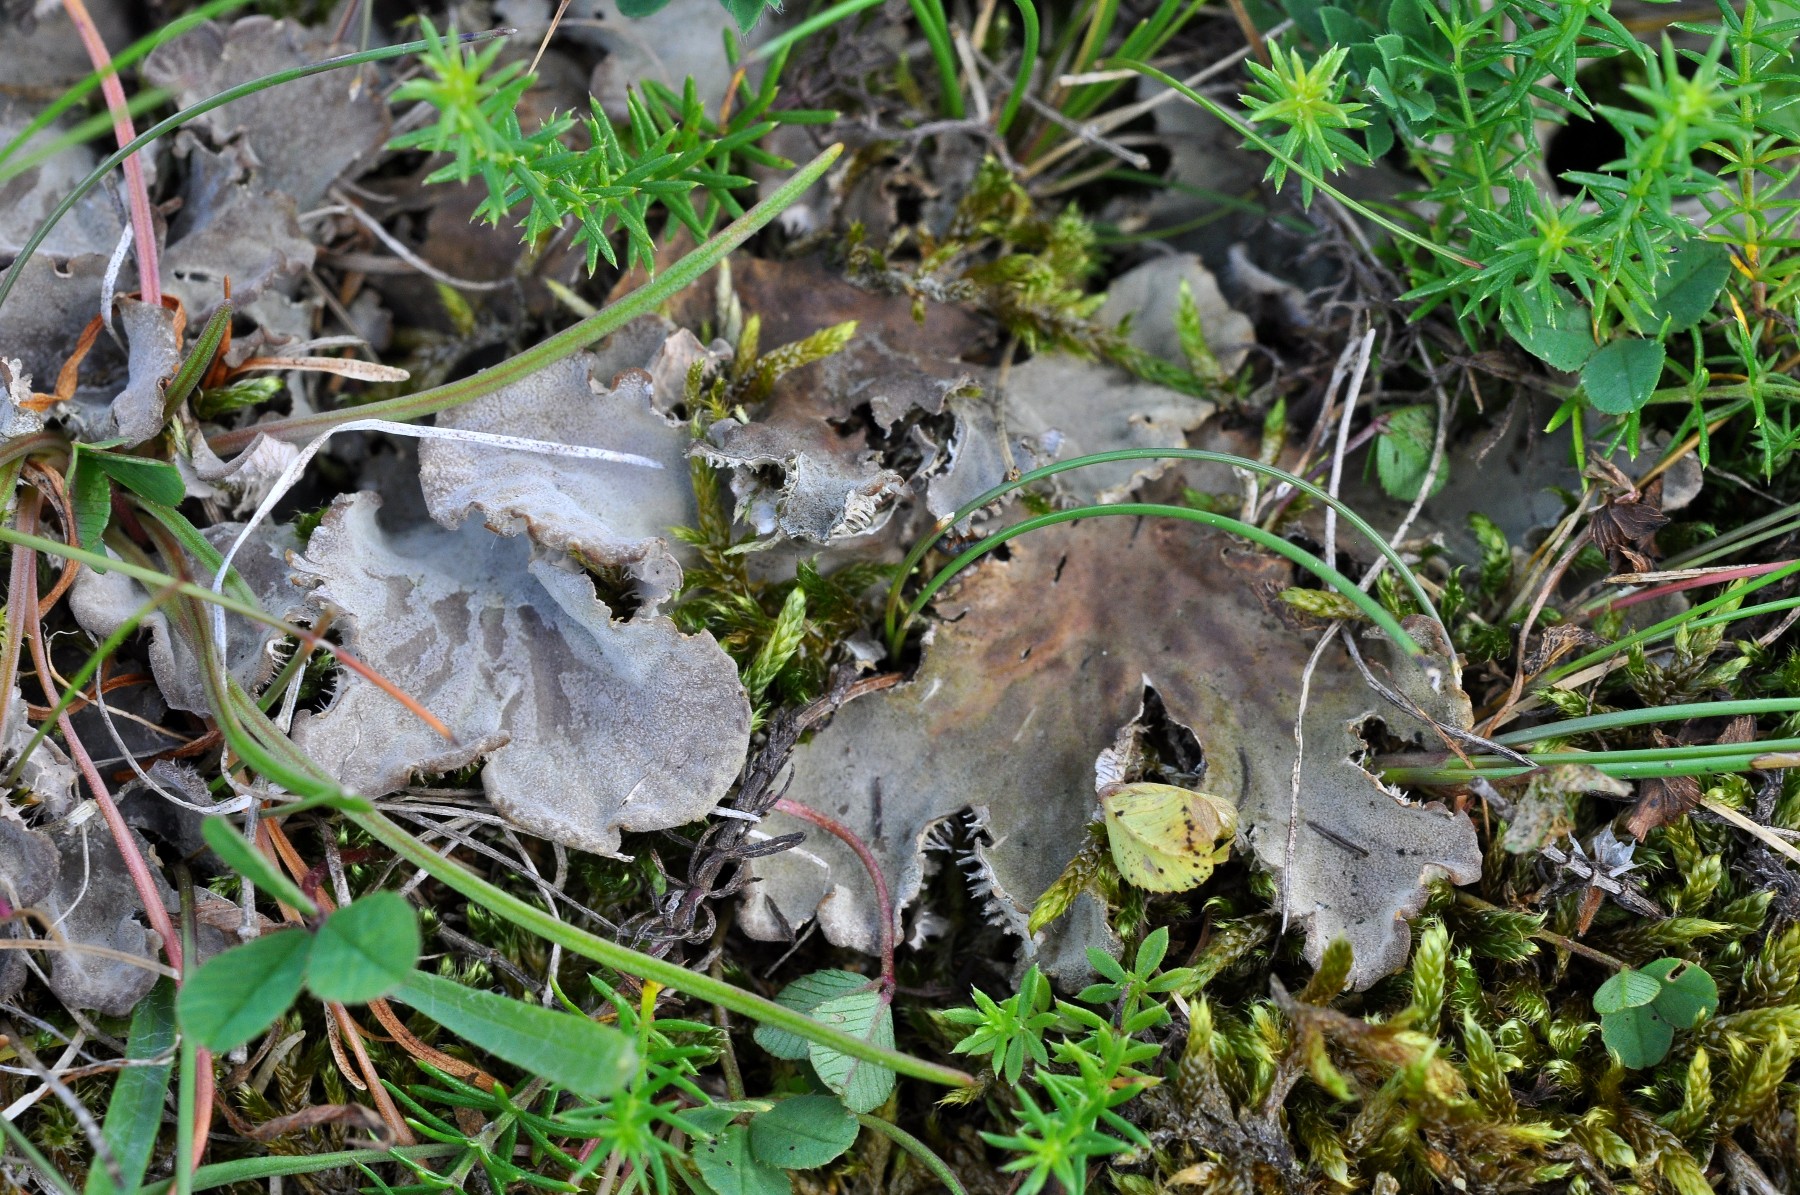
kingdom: Fungi
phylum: Ascomycota
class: Lecanoromycetes
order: Peltigerales
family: Peltigeraceae
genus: Peltigera
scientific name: Peltigera membranacea
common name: tynd skjoldlav
